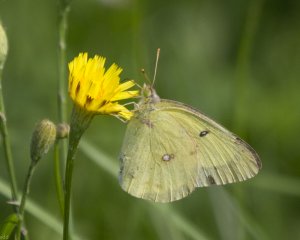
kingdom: Animalia
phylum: Arthropoda
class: Insecta
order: Lepidoptera
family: Pieridae
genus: Colias
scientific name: Colias philodice
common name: Clouded Sulphur
